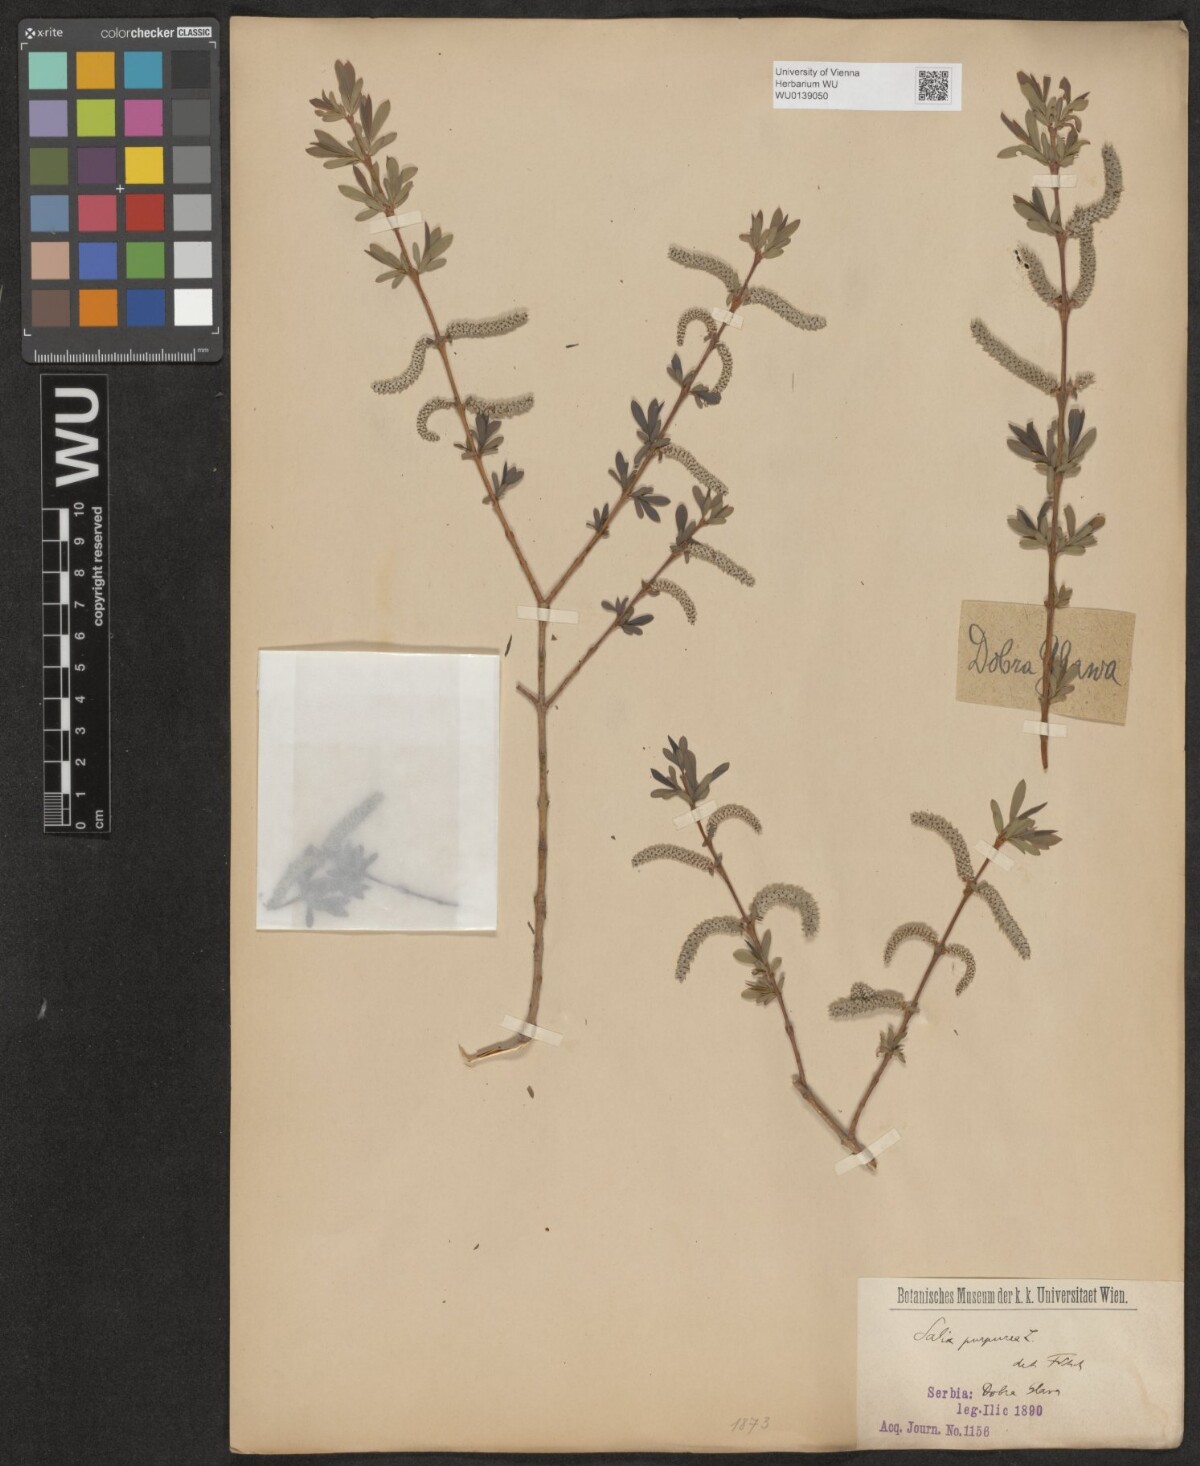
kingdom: Plantae
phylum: Tracheophyta
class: Magnoliopsida
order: Malpighiales
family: Salicaceae
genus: Salix
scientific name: Salix purpurea
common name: Purple willow
